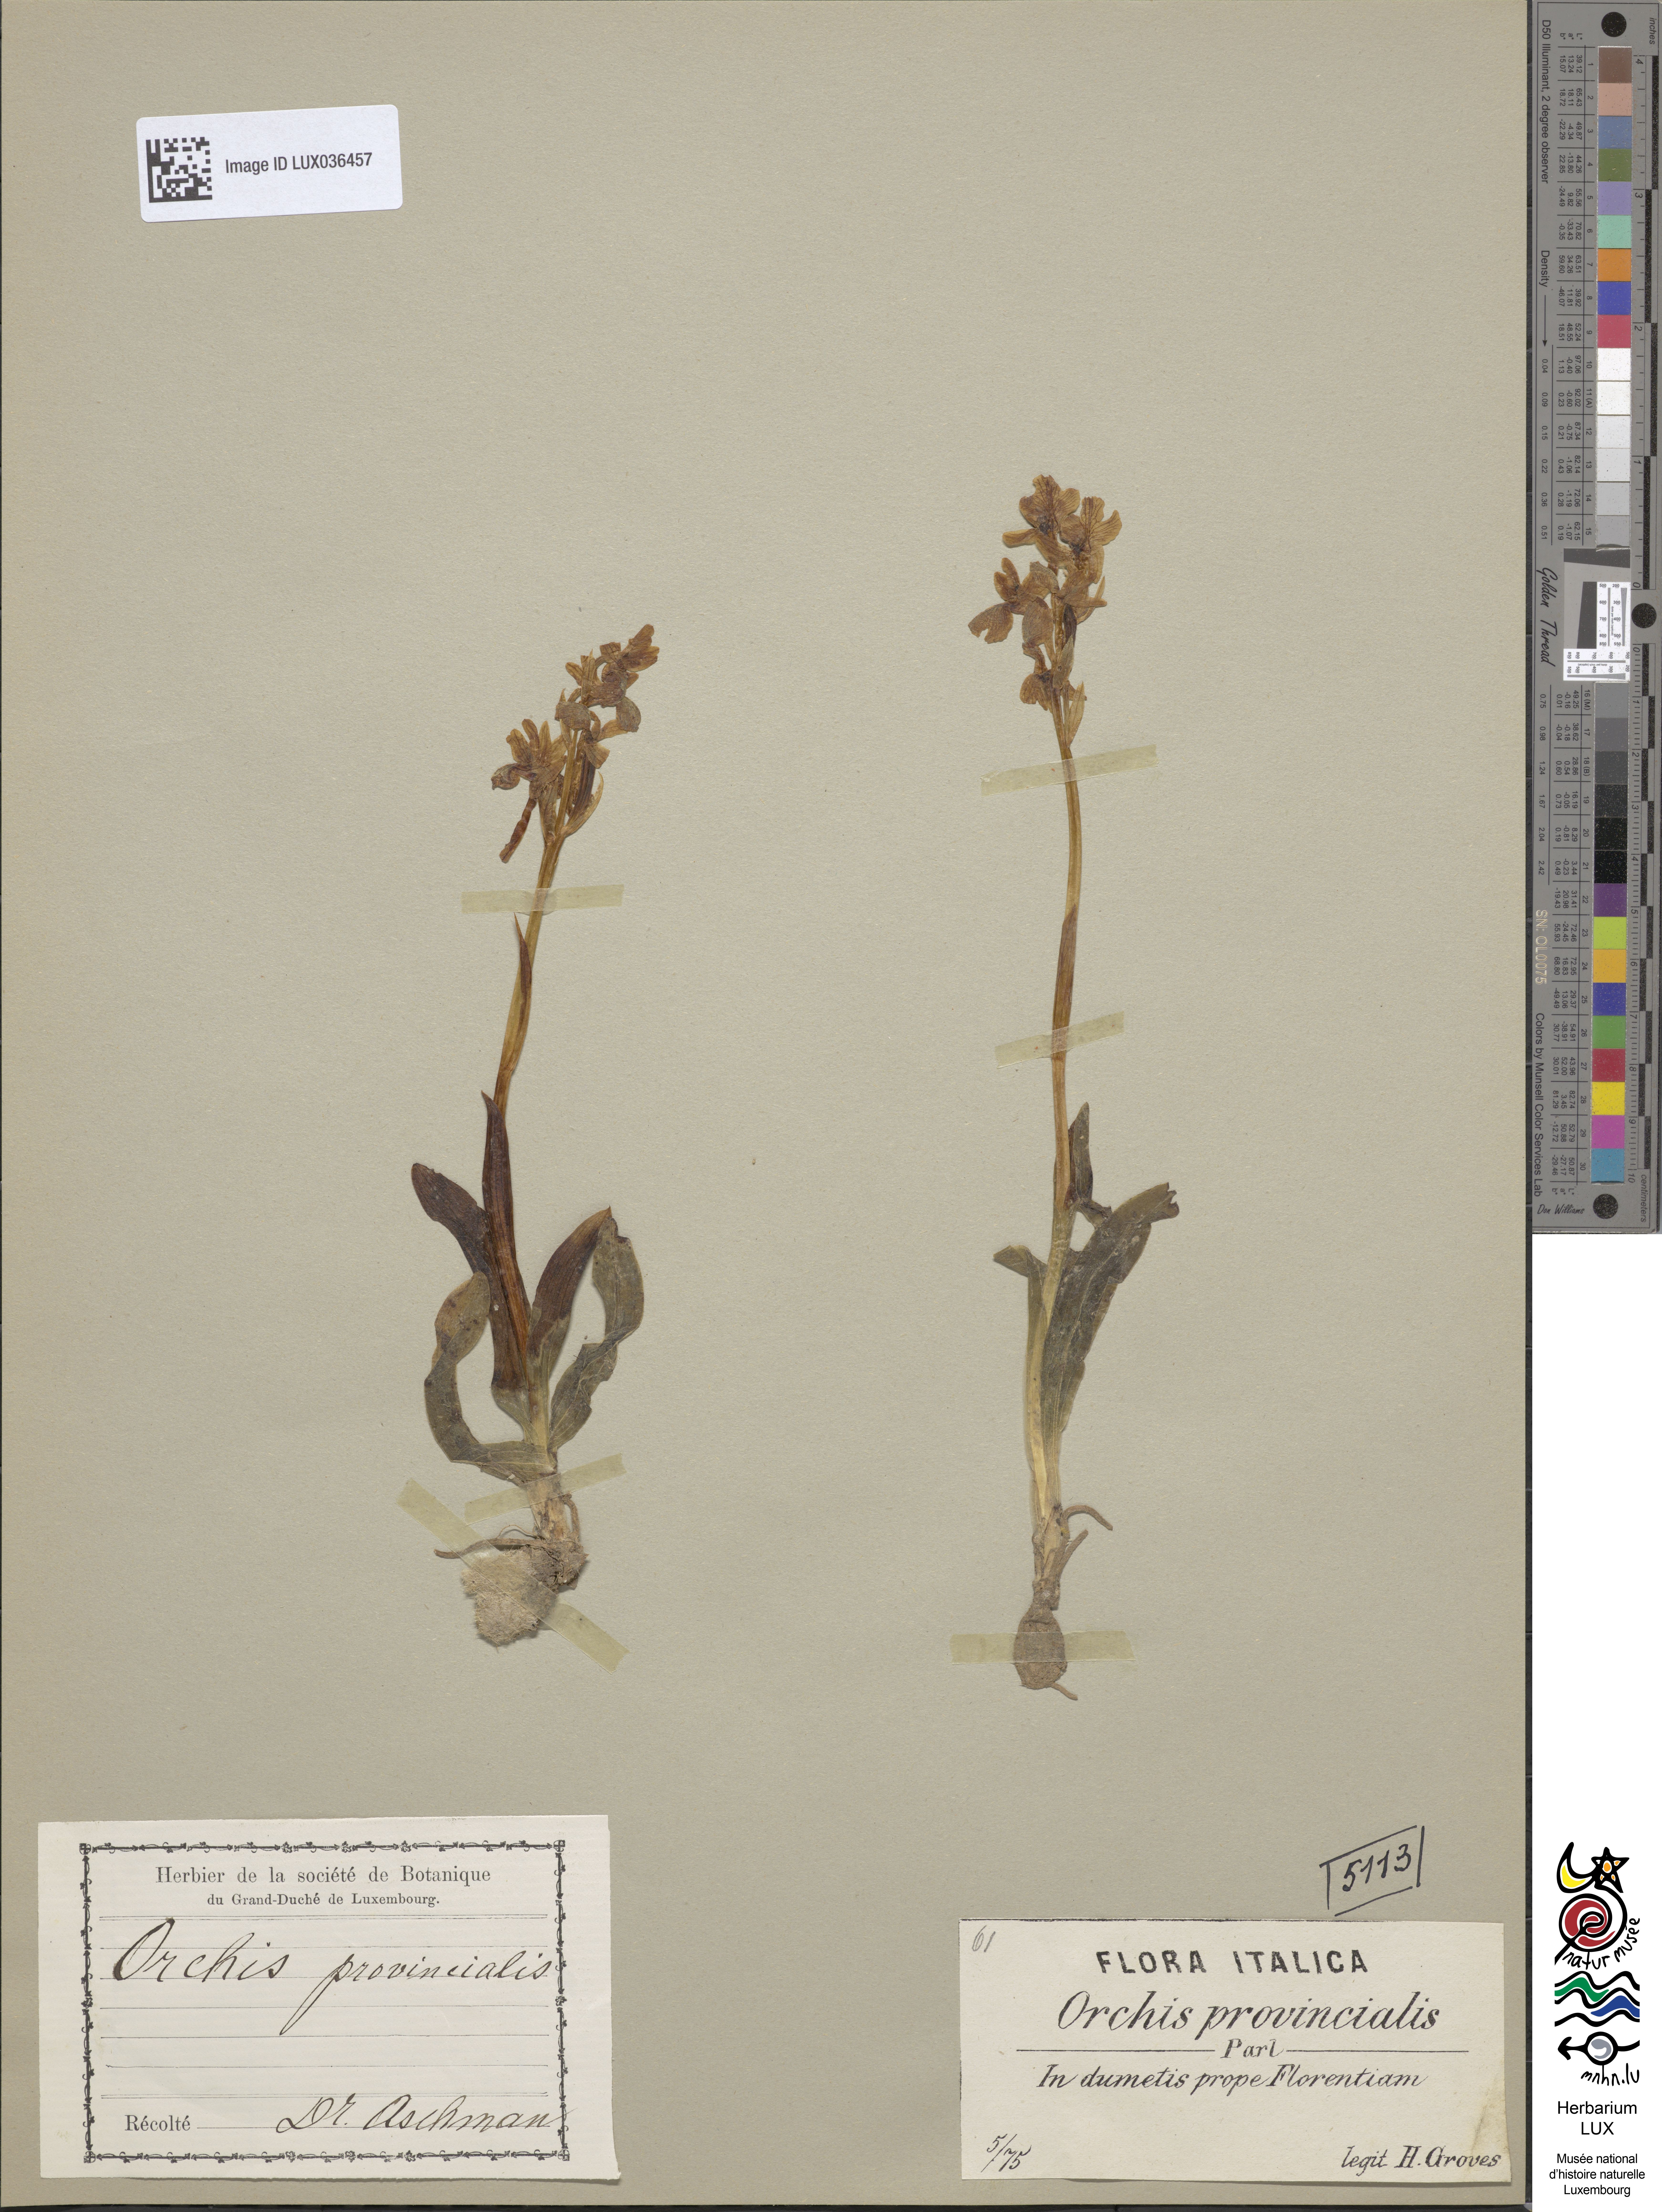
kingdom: Plantae
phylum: Tracheophyta
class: Liliopsida
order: Asparagales
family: Orchidaceae
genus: Orchis
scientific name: Orchis provincialis
